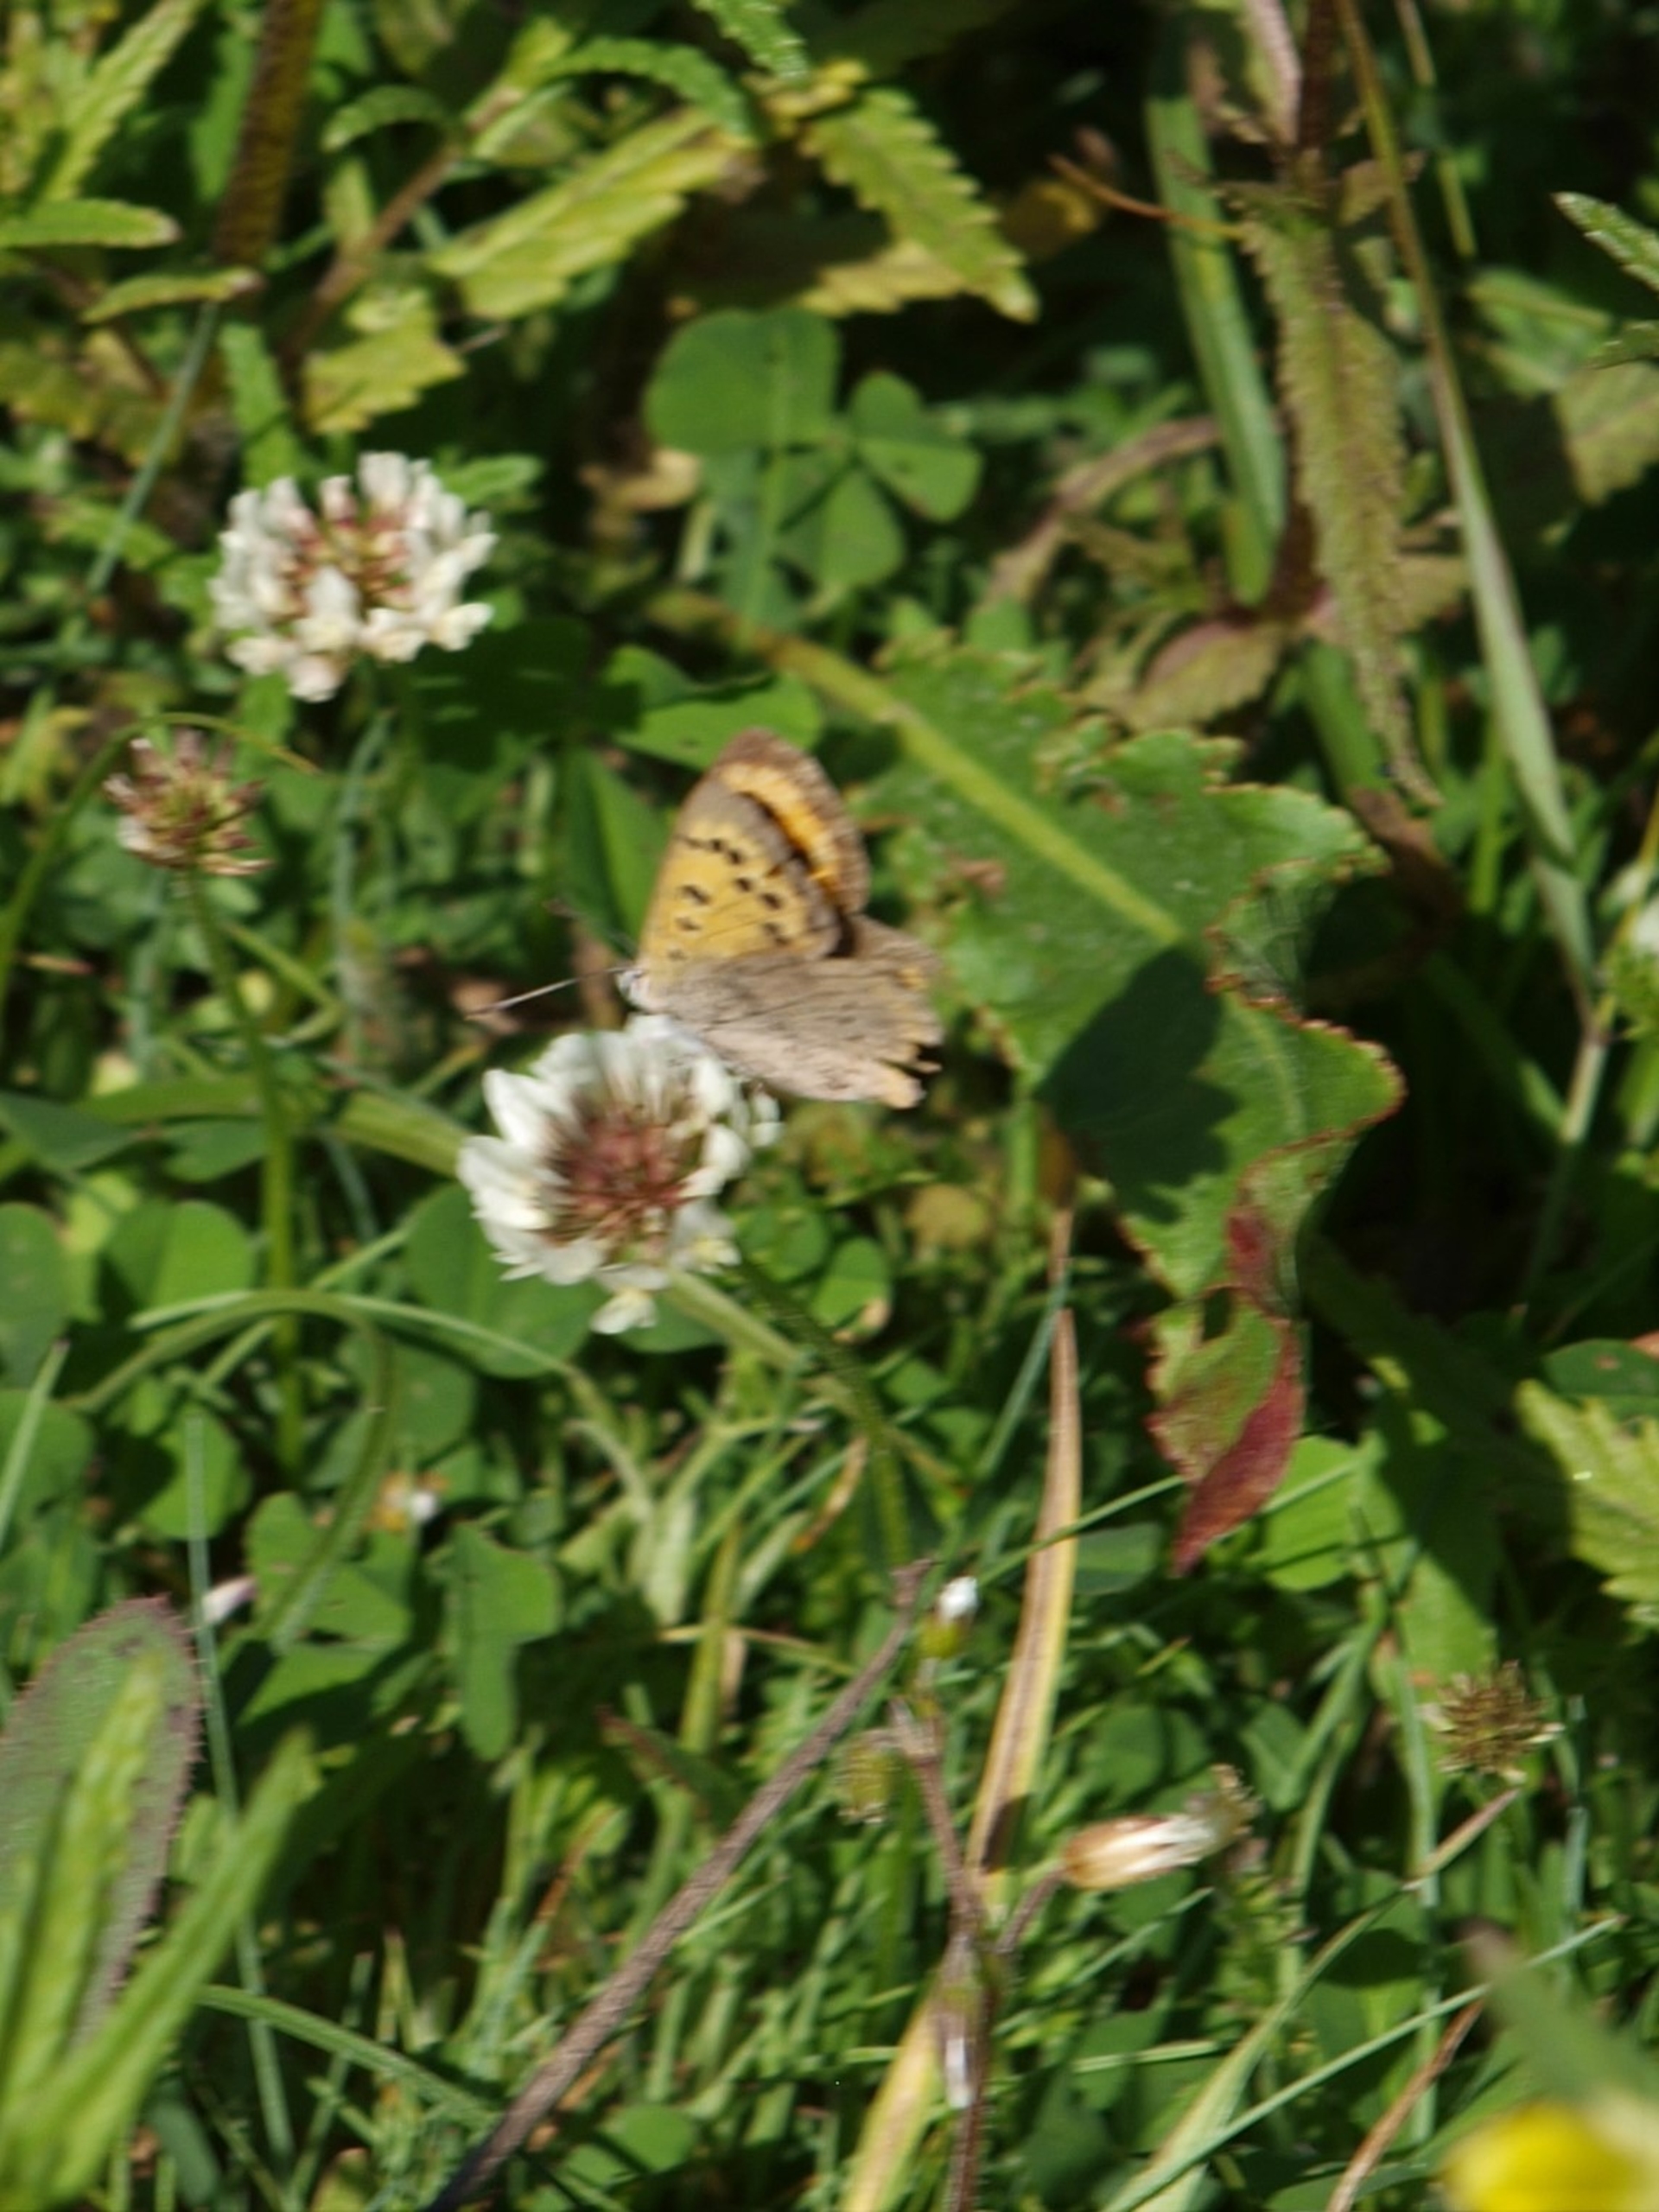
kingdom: Animalia
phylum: Arthropoda
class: Insecta
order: Lepidoptera
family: Lycaenidae
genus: Lycaena
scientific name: Lycaena phlaeas
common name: Lille ildfugl
